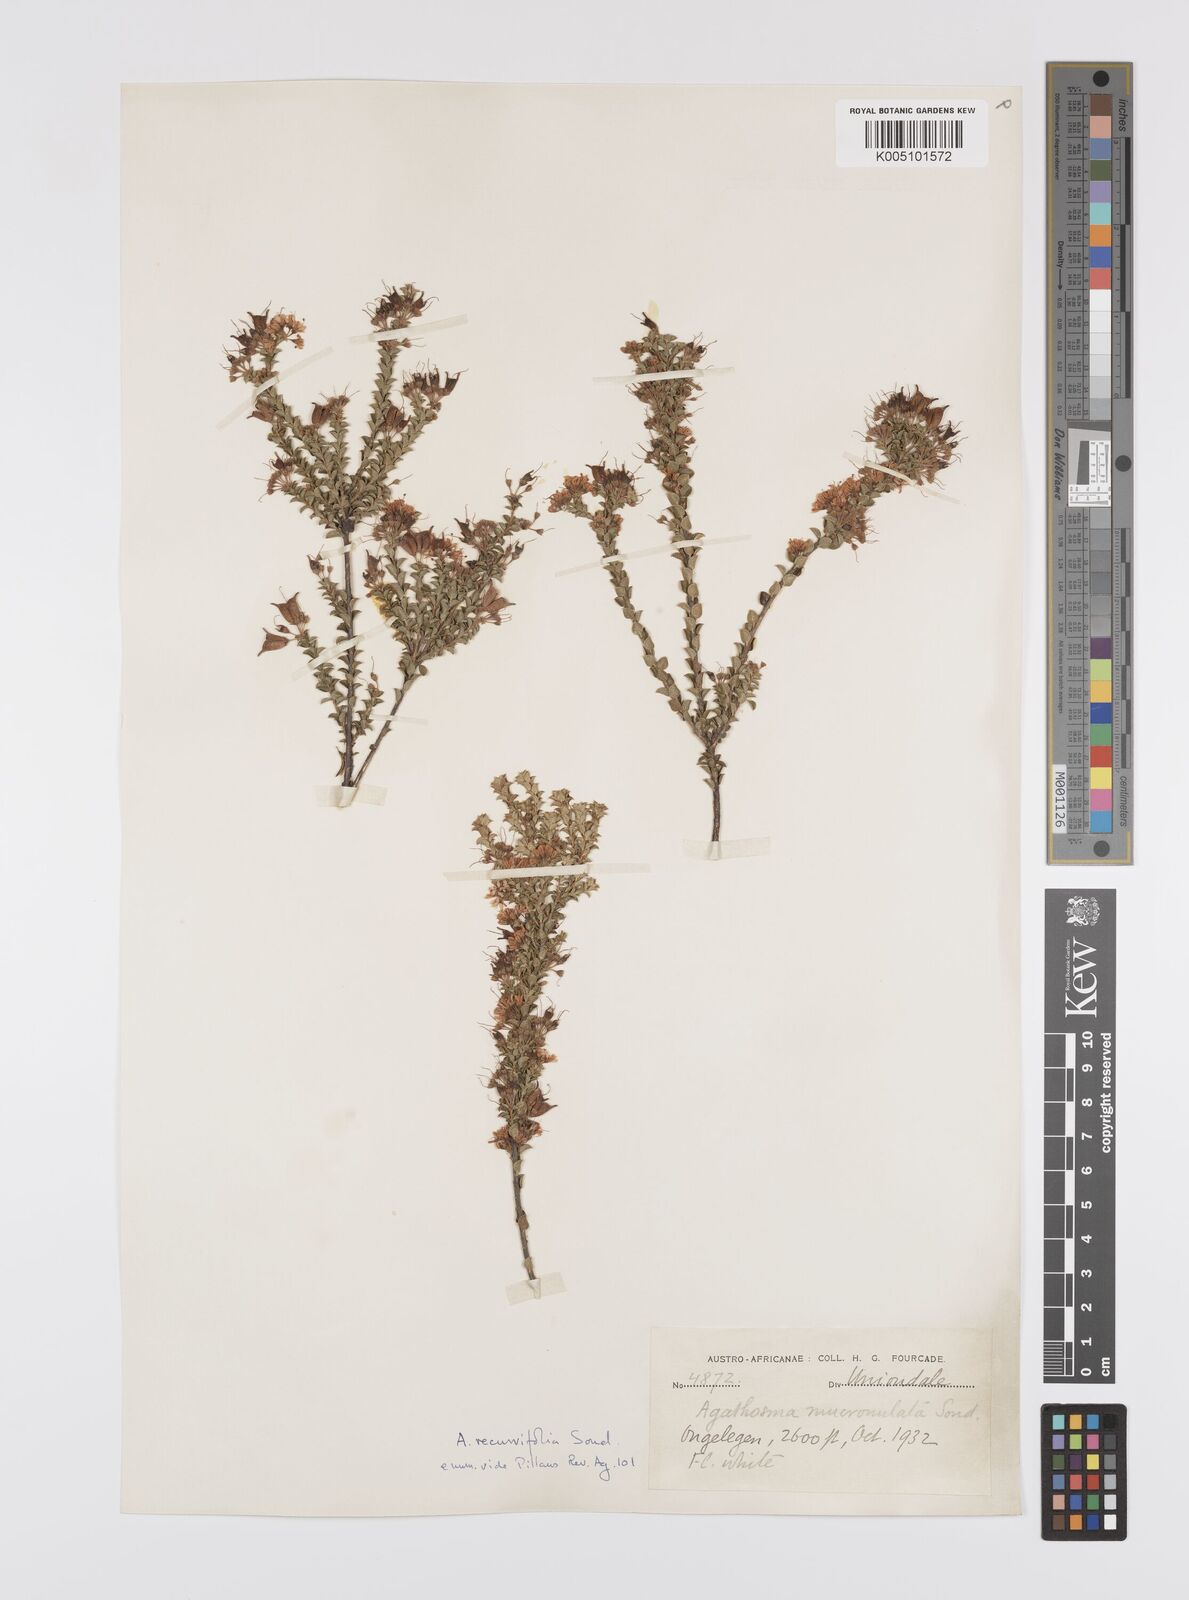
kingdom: Plantae
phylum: Tracheophyta
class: Magnoliopsida
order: Sapindales
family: Rutaceae
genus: Agathosma
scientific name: Agathosma recurvifolia
